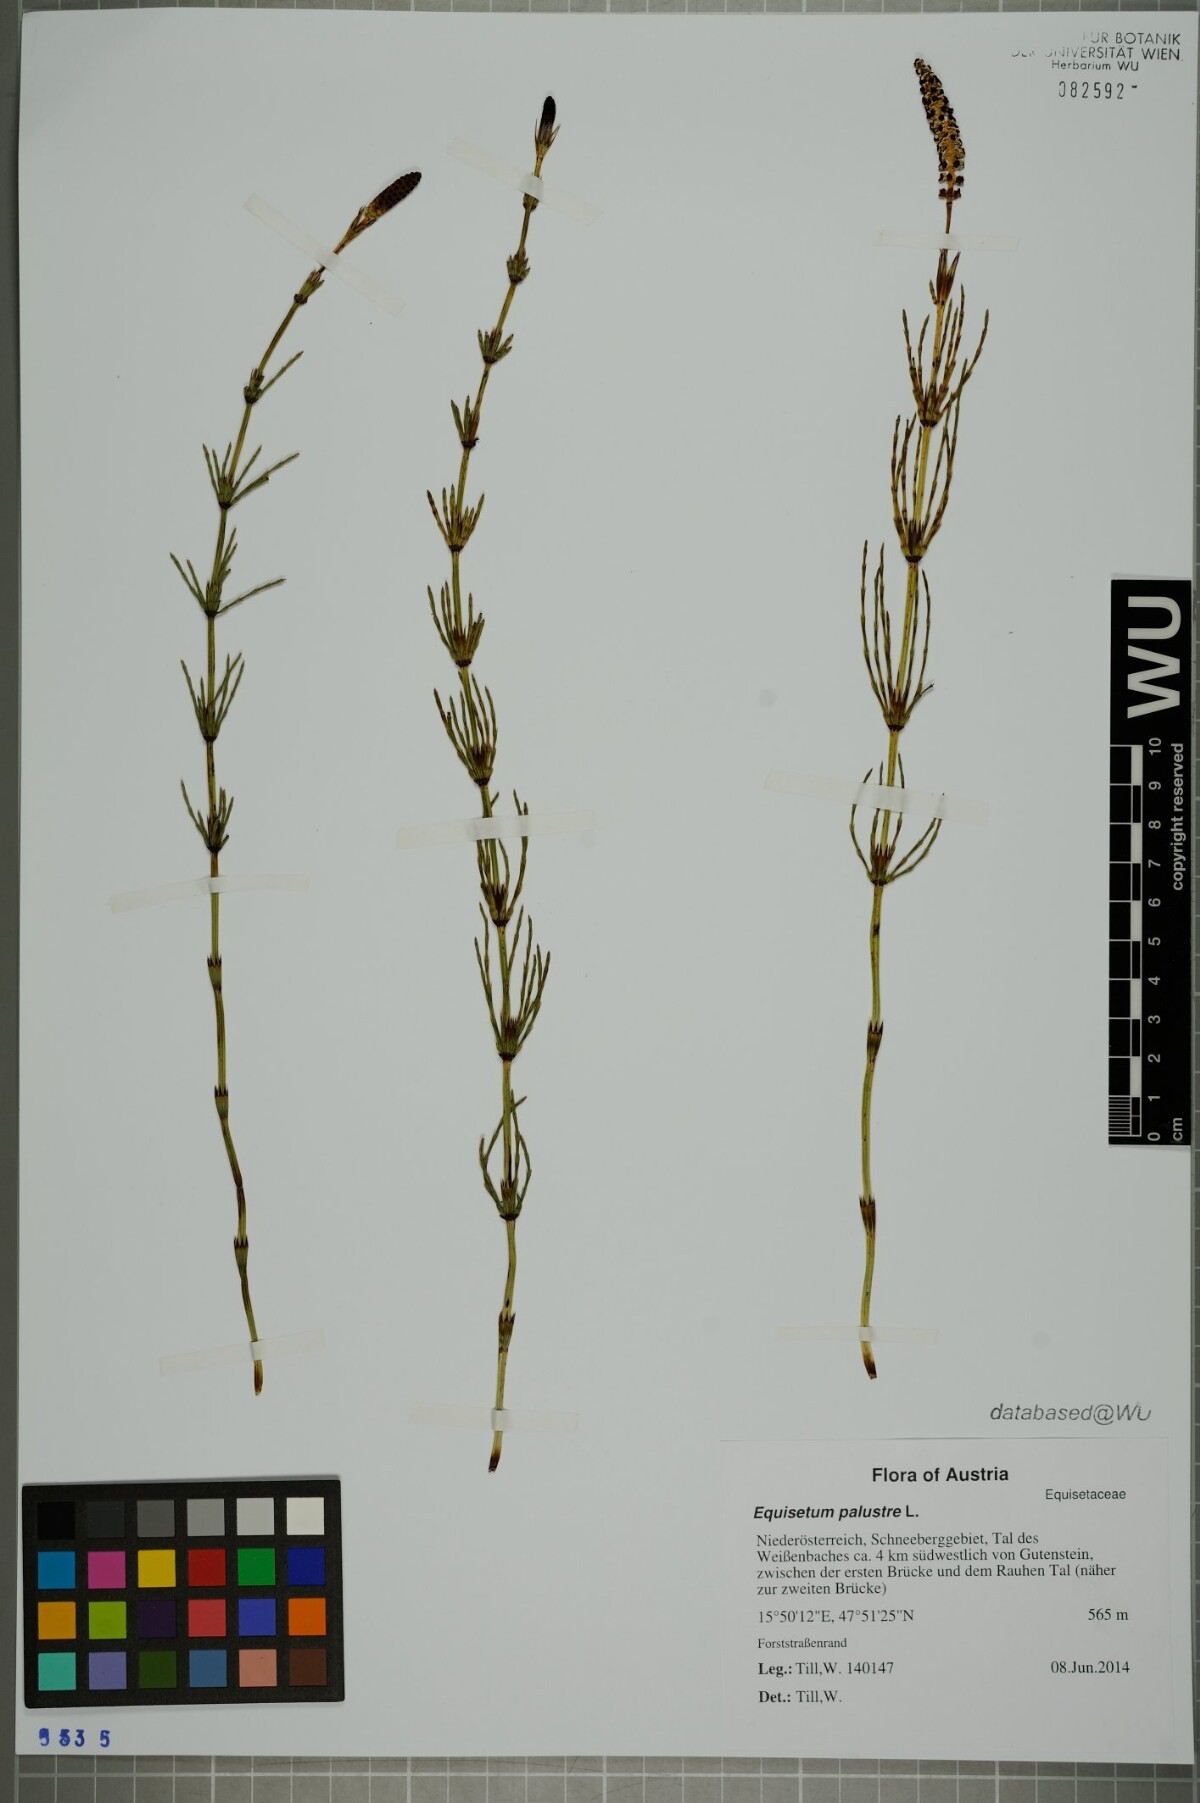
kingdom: Plantae
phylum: Tracheophyta
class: Polypodiopsida
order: Equisetales
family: Equisetaceae
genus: Equisetum
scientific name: Equisetum palustre
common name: Marsh horsetail
